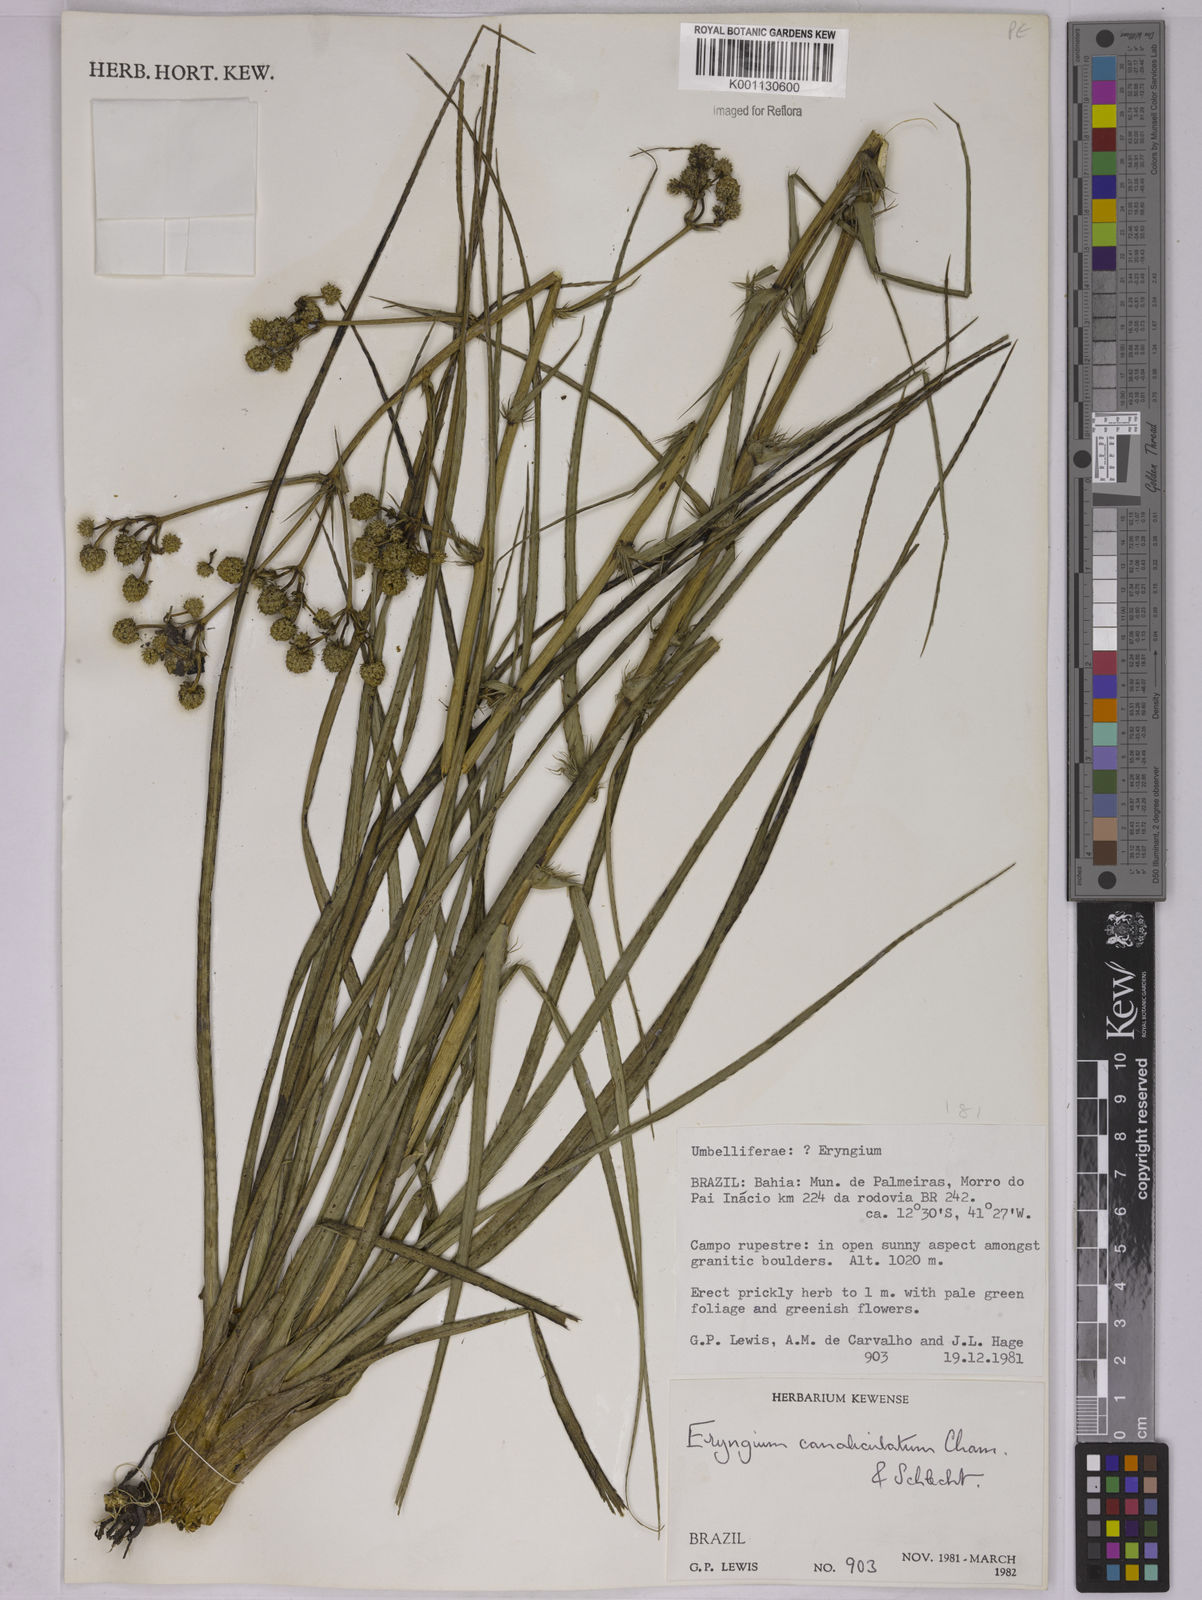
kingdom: Plantae
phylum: Tracheophyta
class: Magnoliopsida
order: Apiales
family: Apiaceae
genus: Eryngium
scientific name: Eryngium canaliculatum
